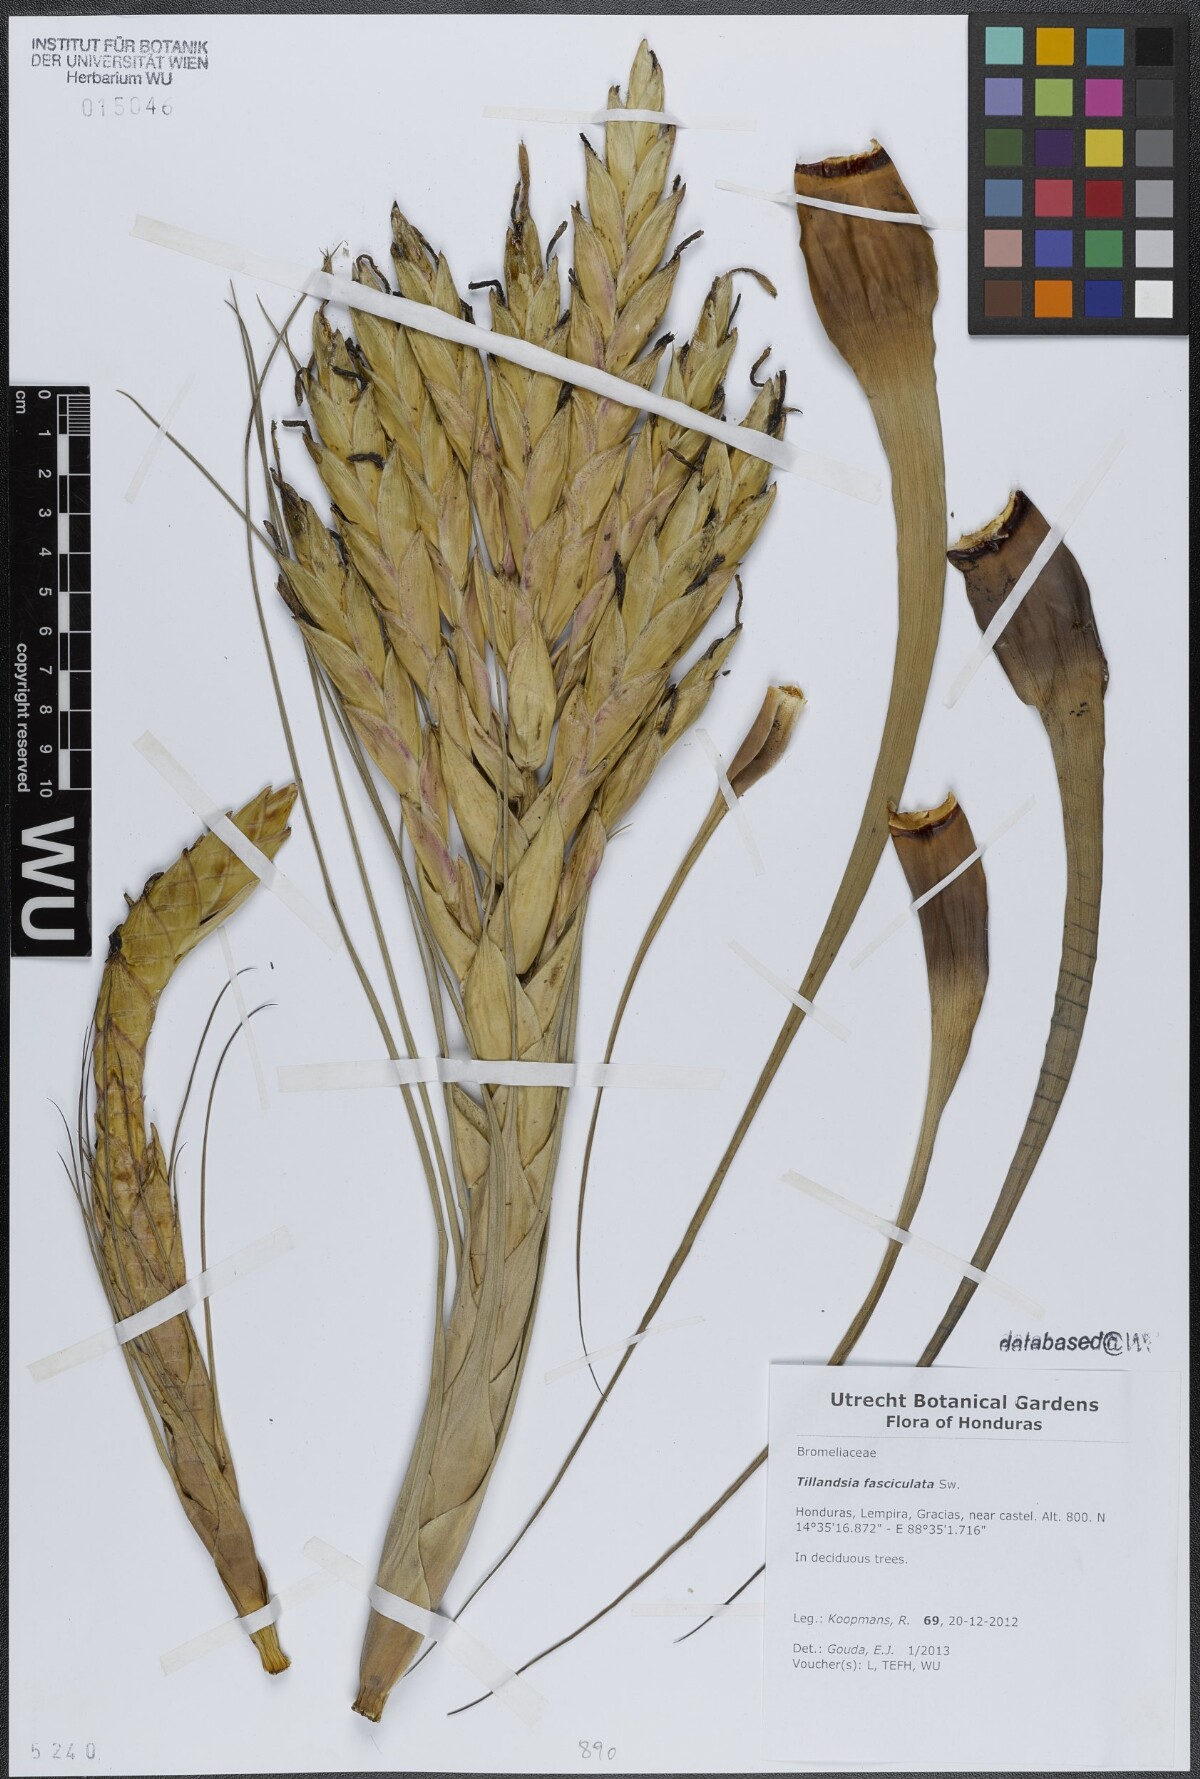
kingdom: Plantae
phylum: Tracheophyta
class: Liliopsida
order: Poales
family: Bromeliaceae
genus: Tillandsia
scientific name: Tillandsia fasciculata
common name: Giant airplant
